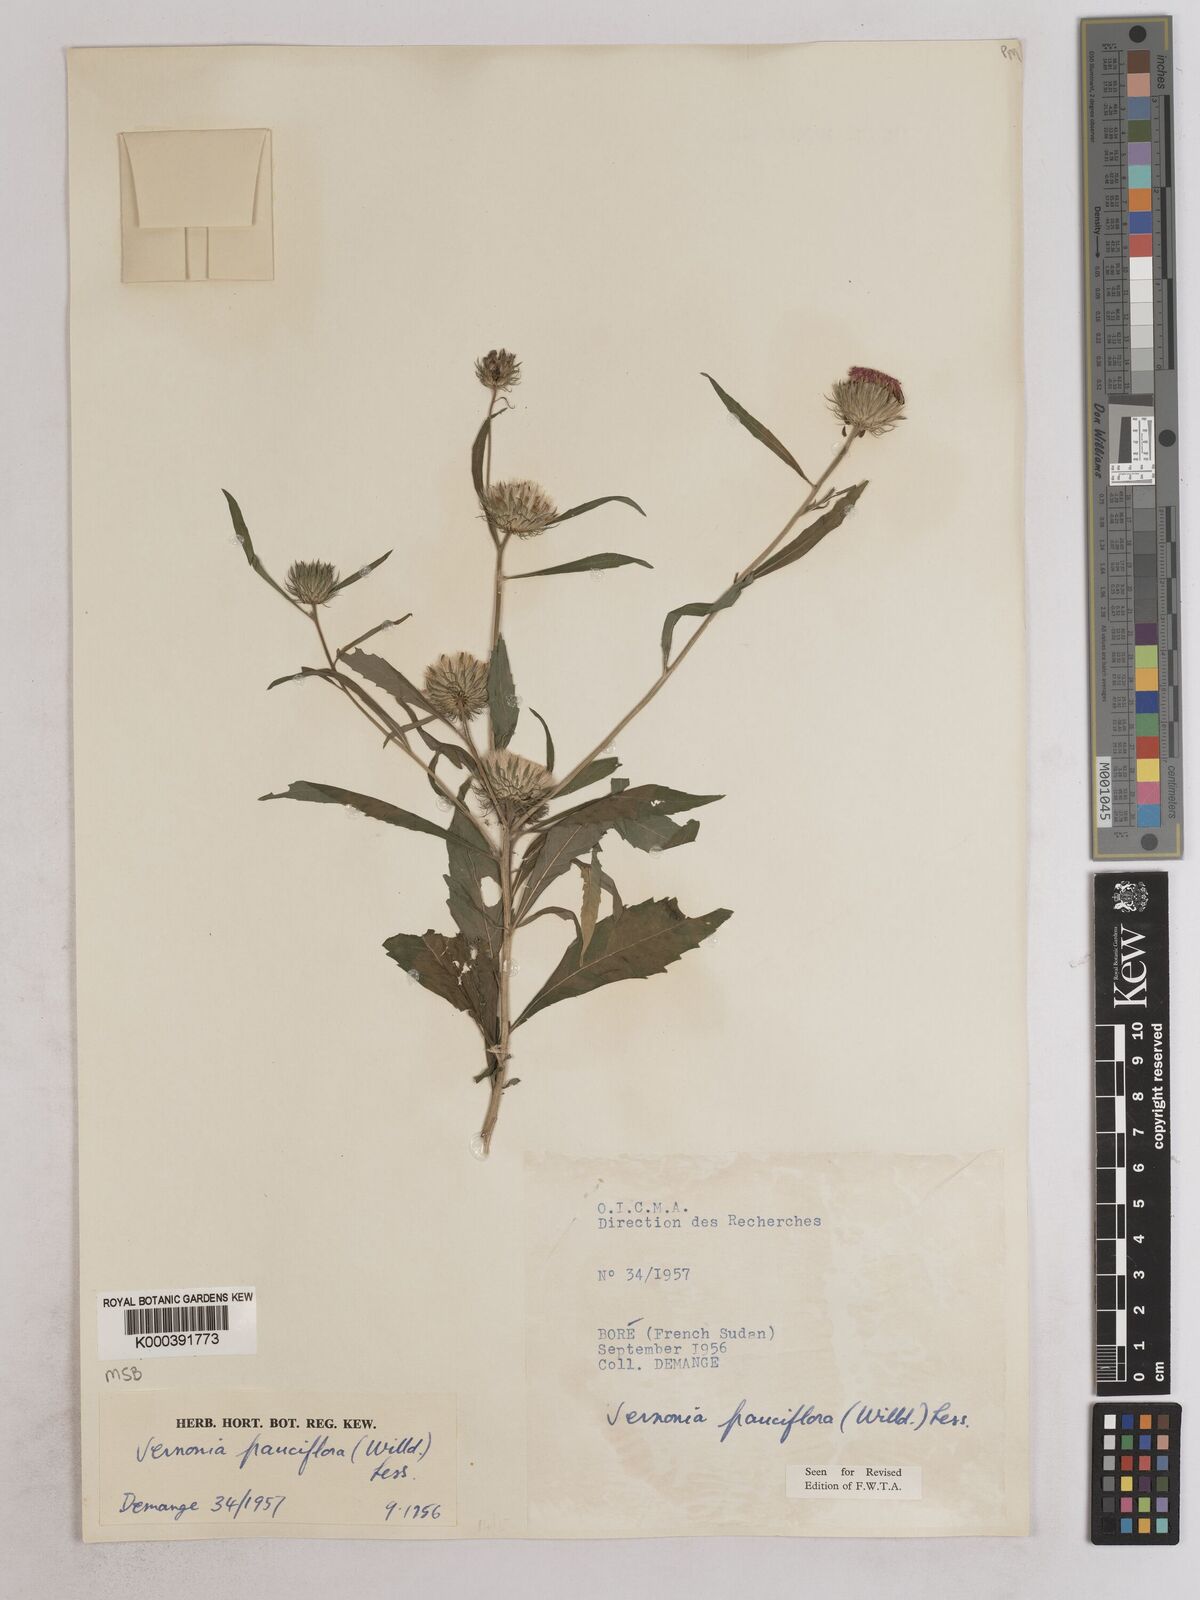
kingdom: Plantae
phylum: Tracheophyta
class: Magnoliopsida
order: Asterales
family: Asteraceae
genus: Vernonia
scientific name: Vernonia galamensis
